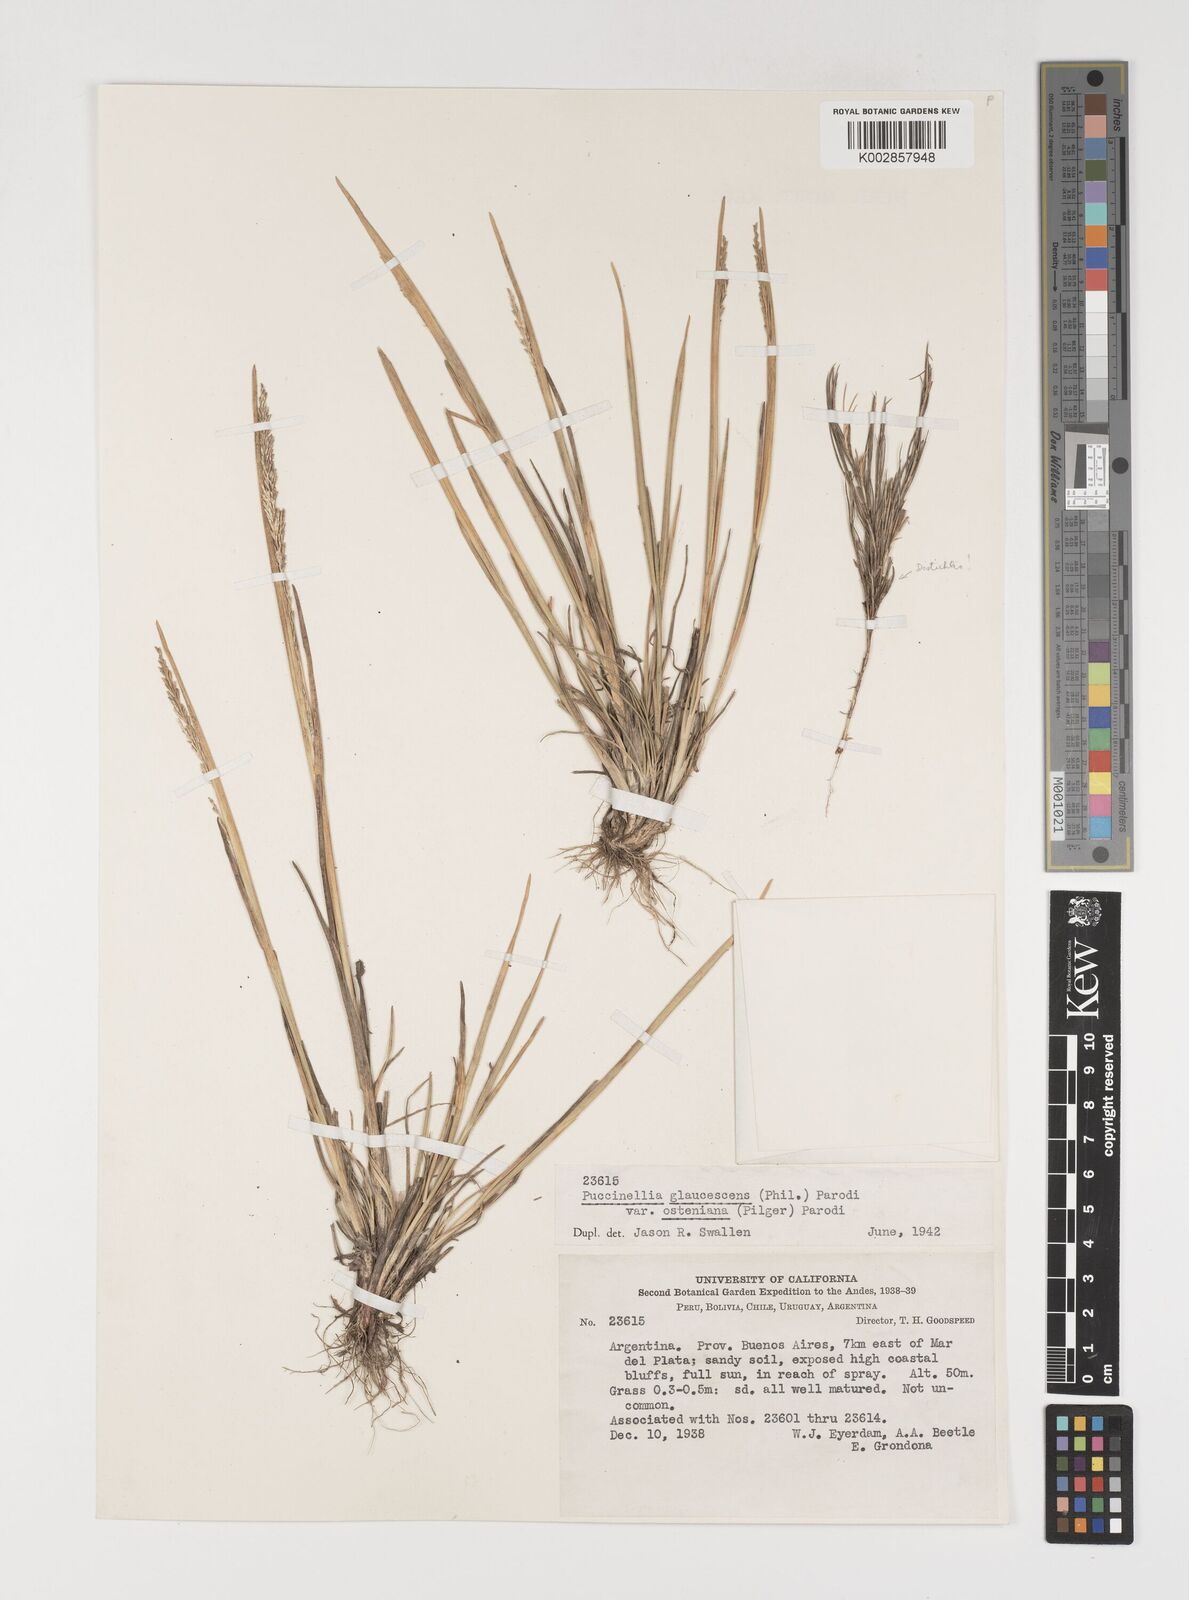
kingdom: Plantae
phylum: Tracheophyta
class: Liliopsida
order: Poales
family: Poaceae
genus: Puccinellia
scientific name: Puccinellia glaucescens
